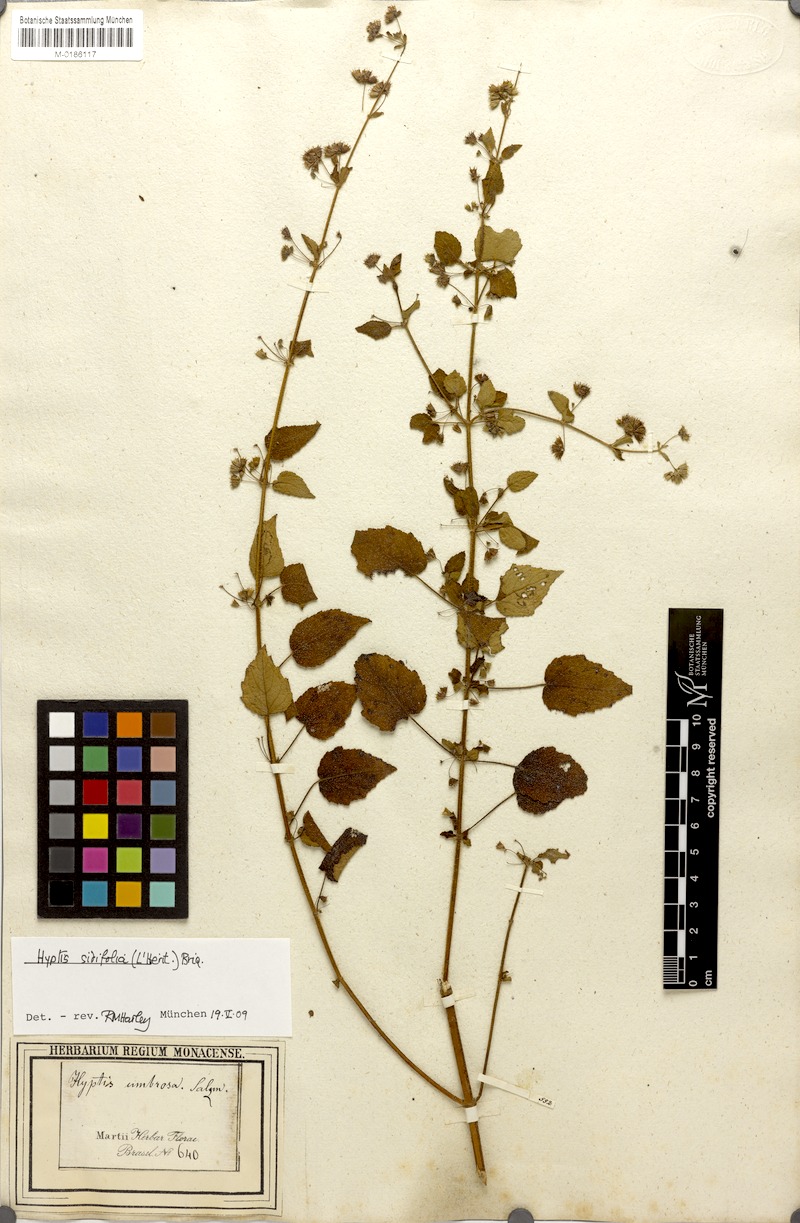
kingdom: Plantae
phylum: Tracheophyta
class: Magnoliopsida
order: Lamiales
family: Lamiaceae
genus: Mesosphaerum
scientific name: Mesosphaerum sidifolium
